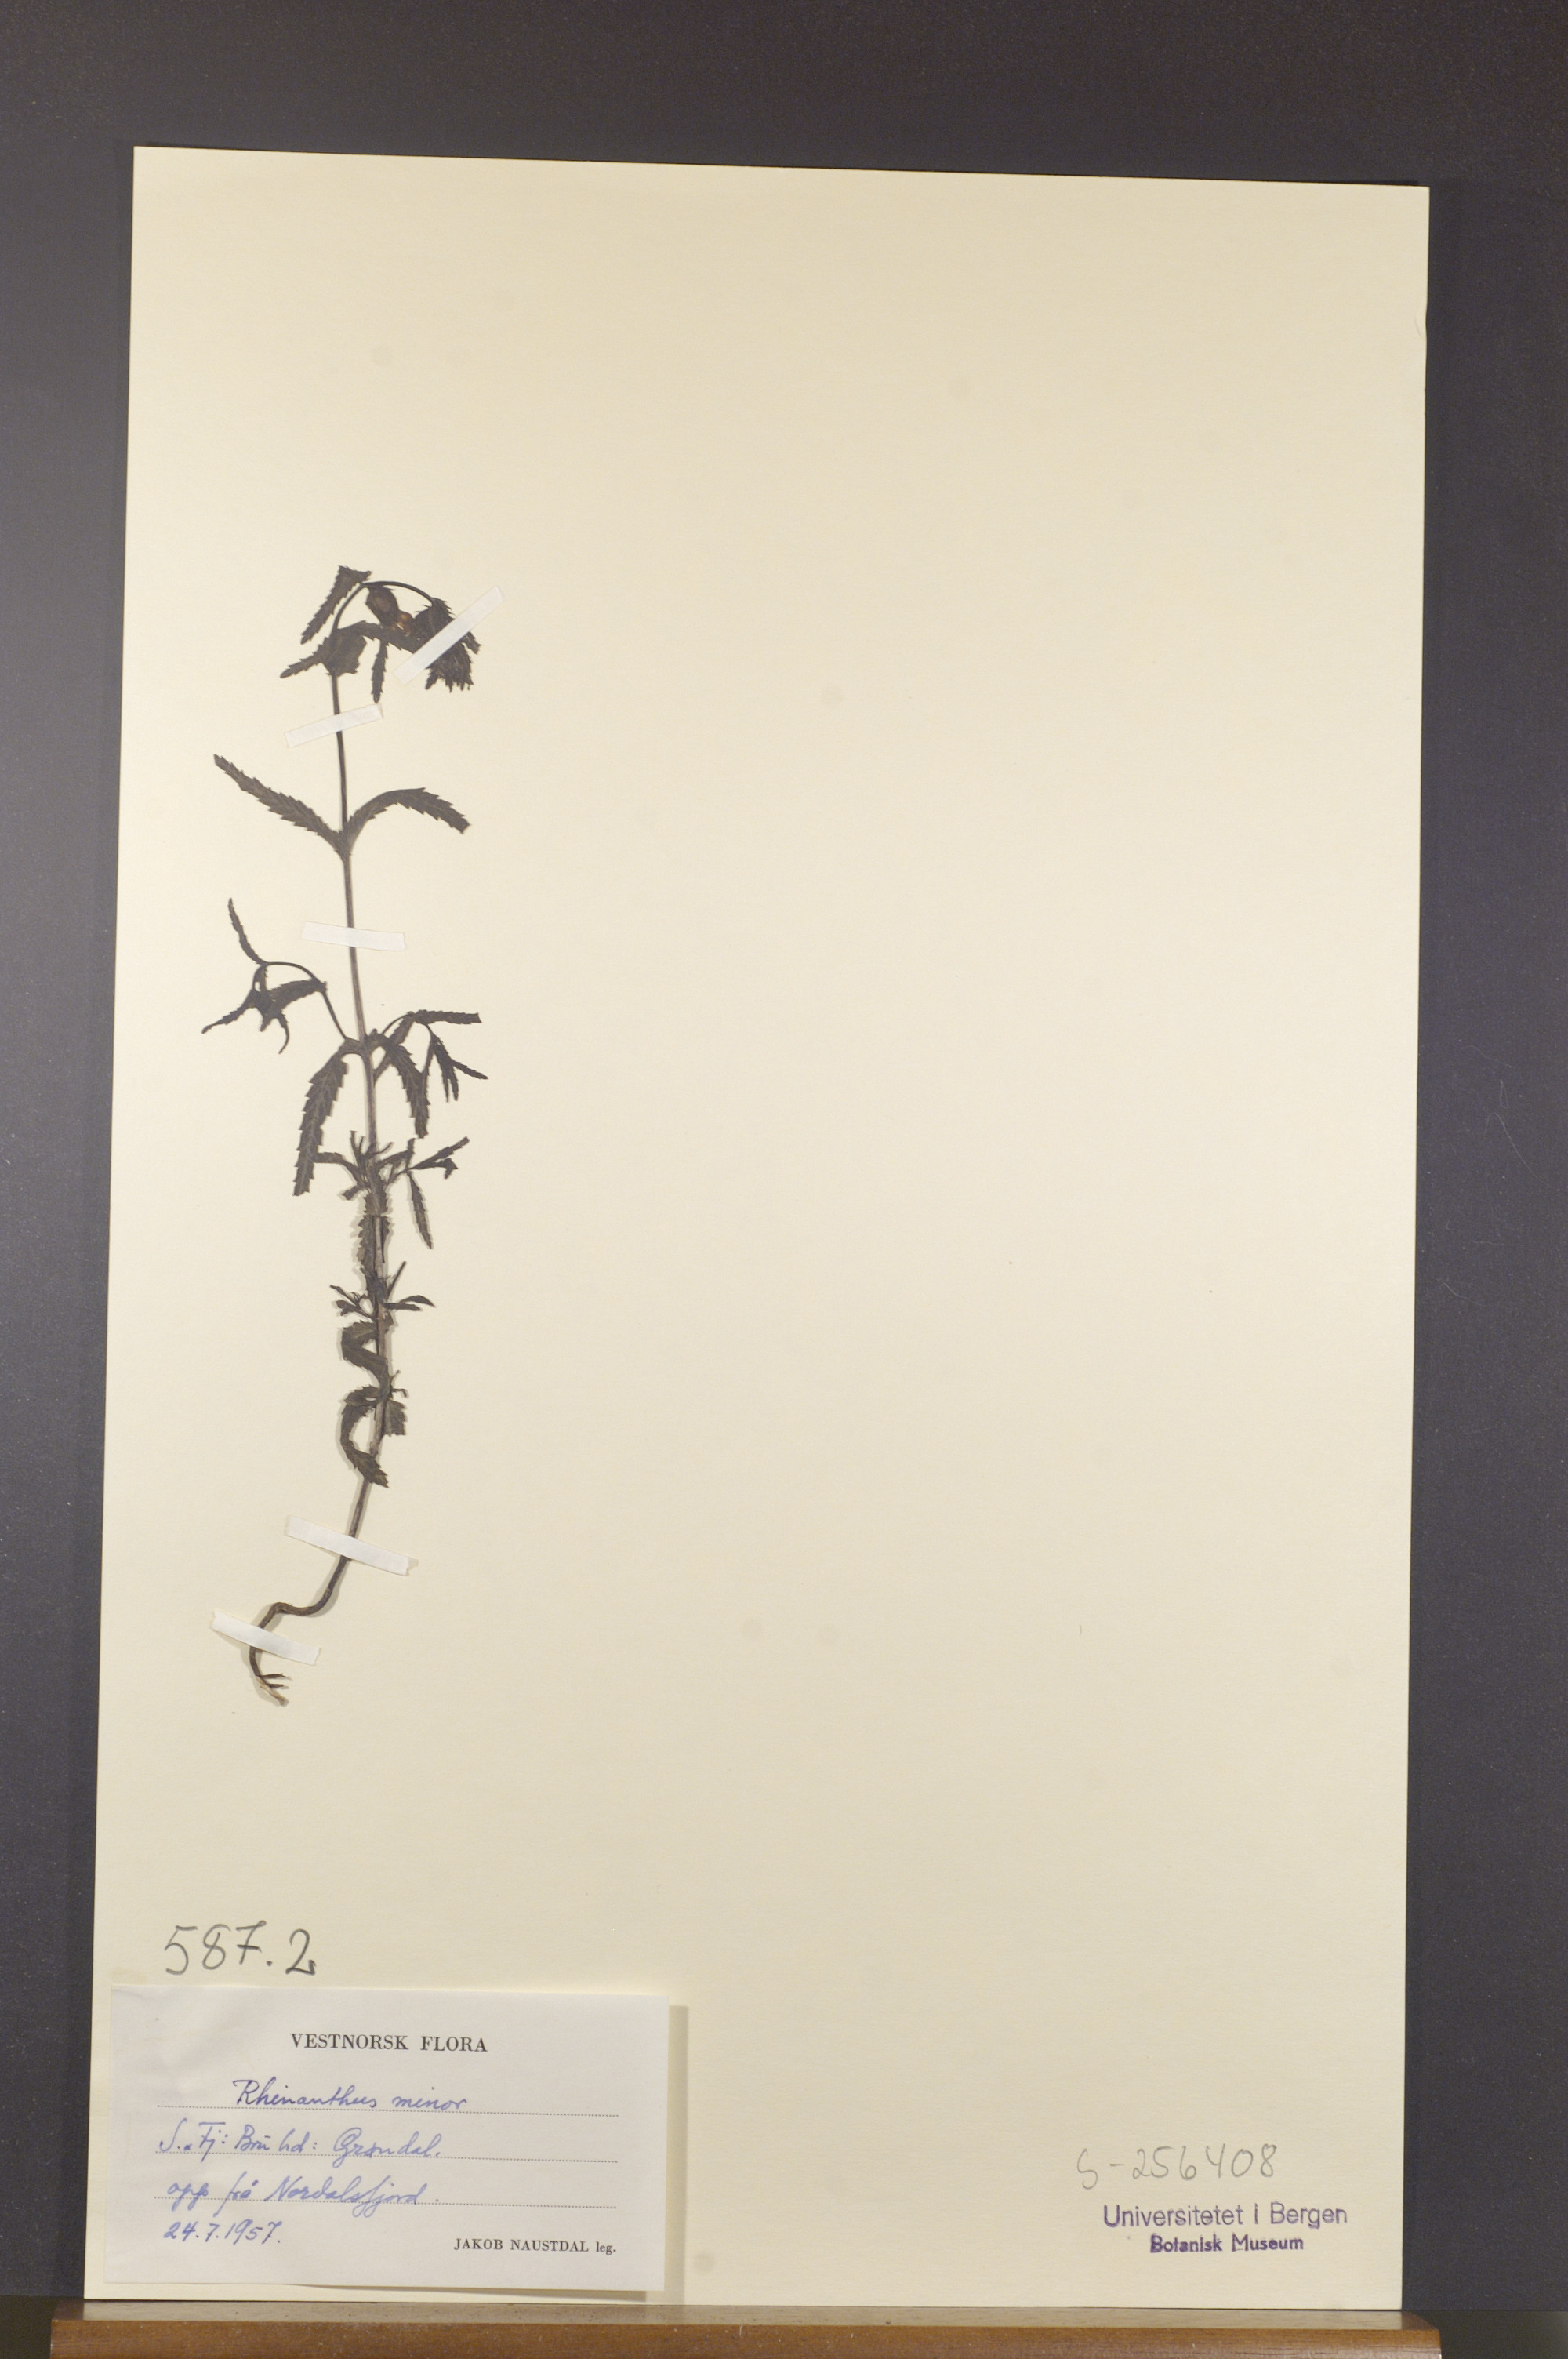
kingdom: Plantae
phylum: Tracheophyta
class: Magnoliopsida
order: Lamiales
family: Orobanchaceae
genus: Rhinanthus
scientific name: Rhinanthus minor
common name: Yellow-rattle
